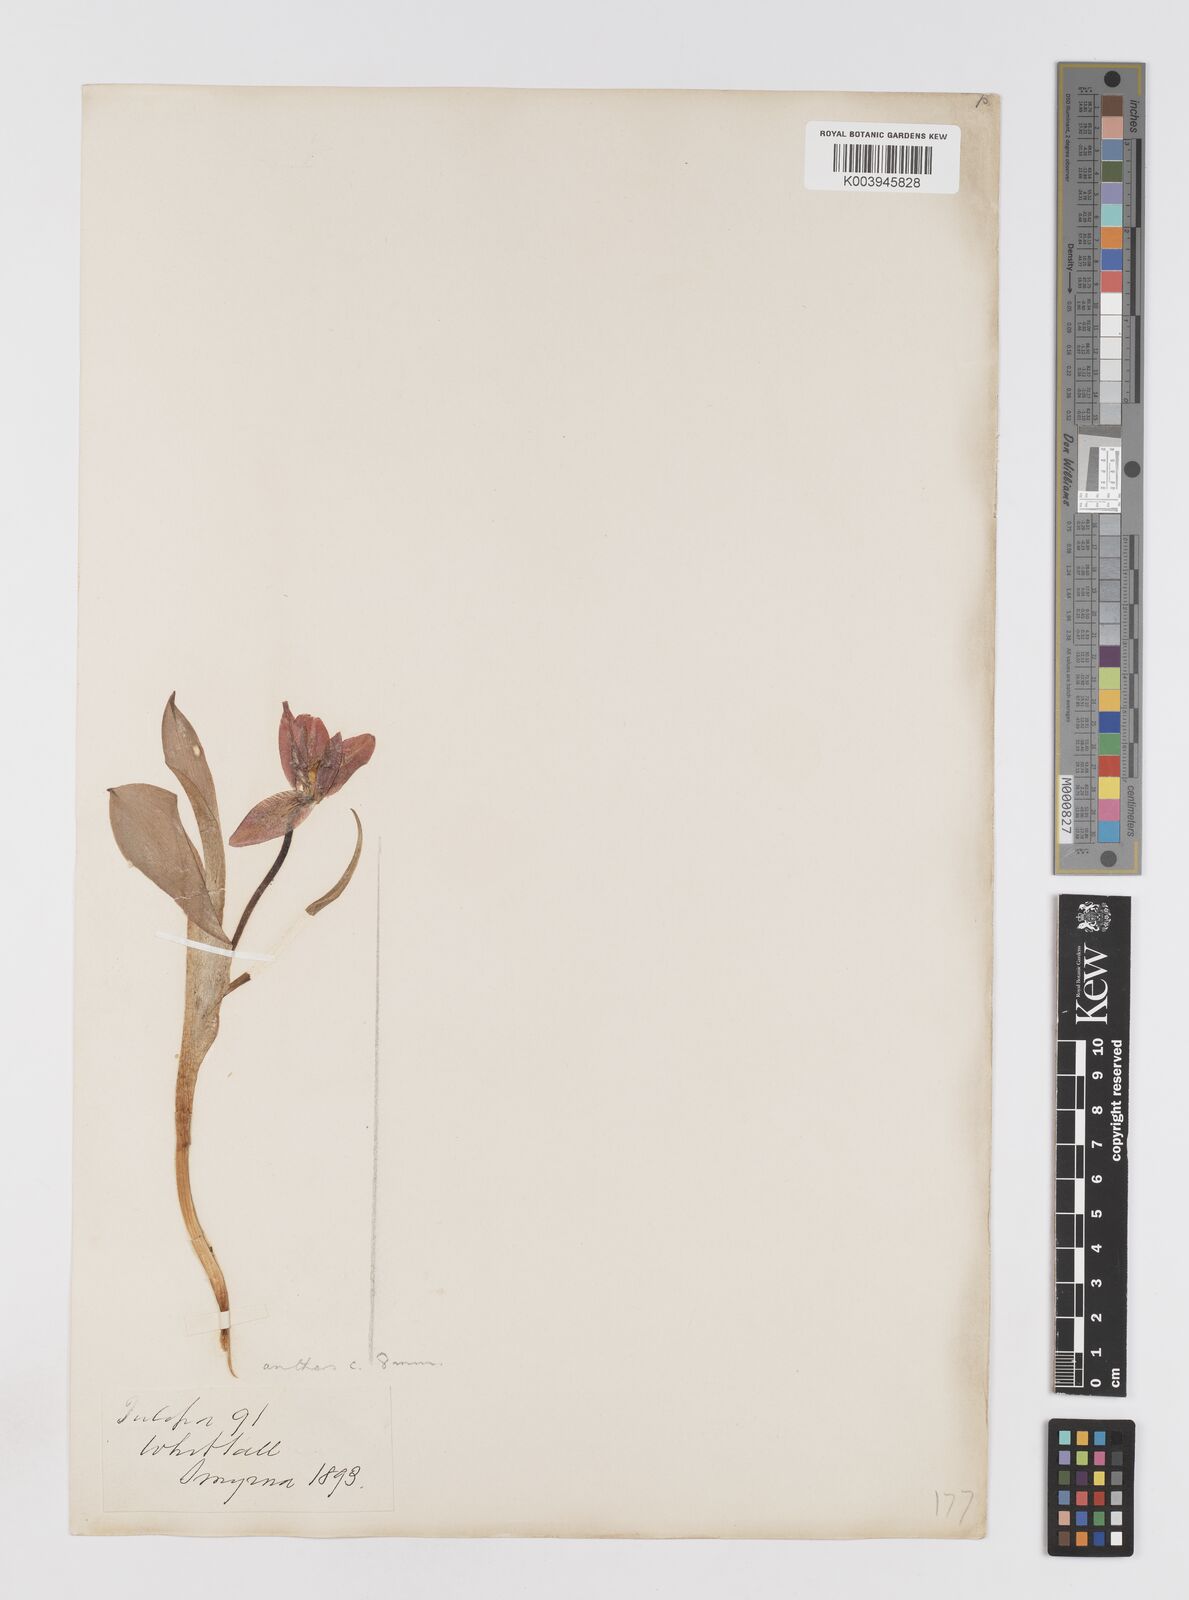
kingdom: Plantae
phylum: Tracheophyta
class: Liliopsida
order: Liliales
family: Liliaceae
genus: Tulipa
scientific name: Tulipa agenensis
